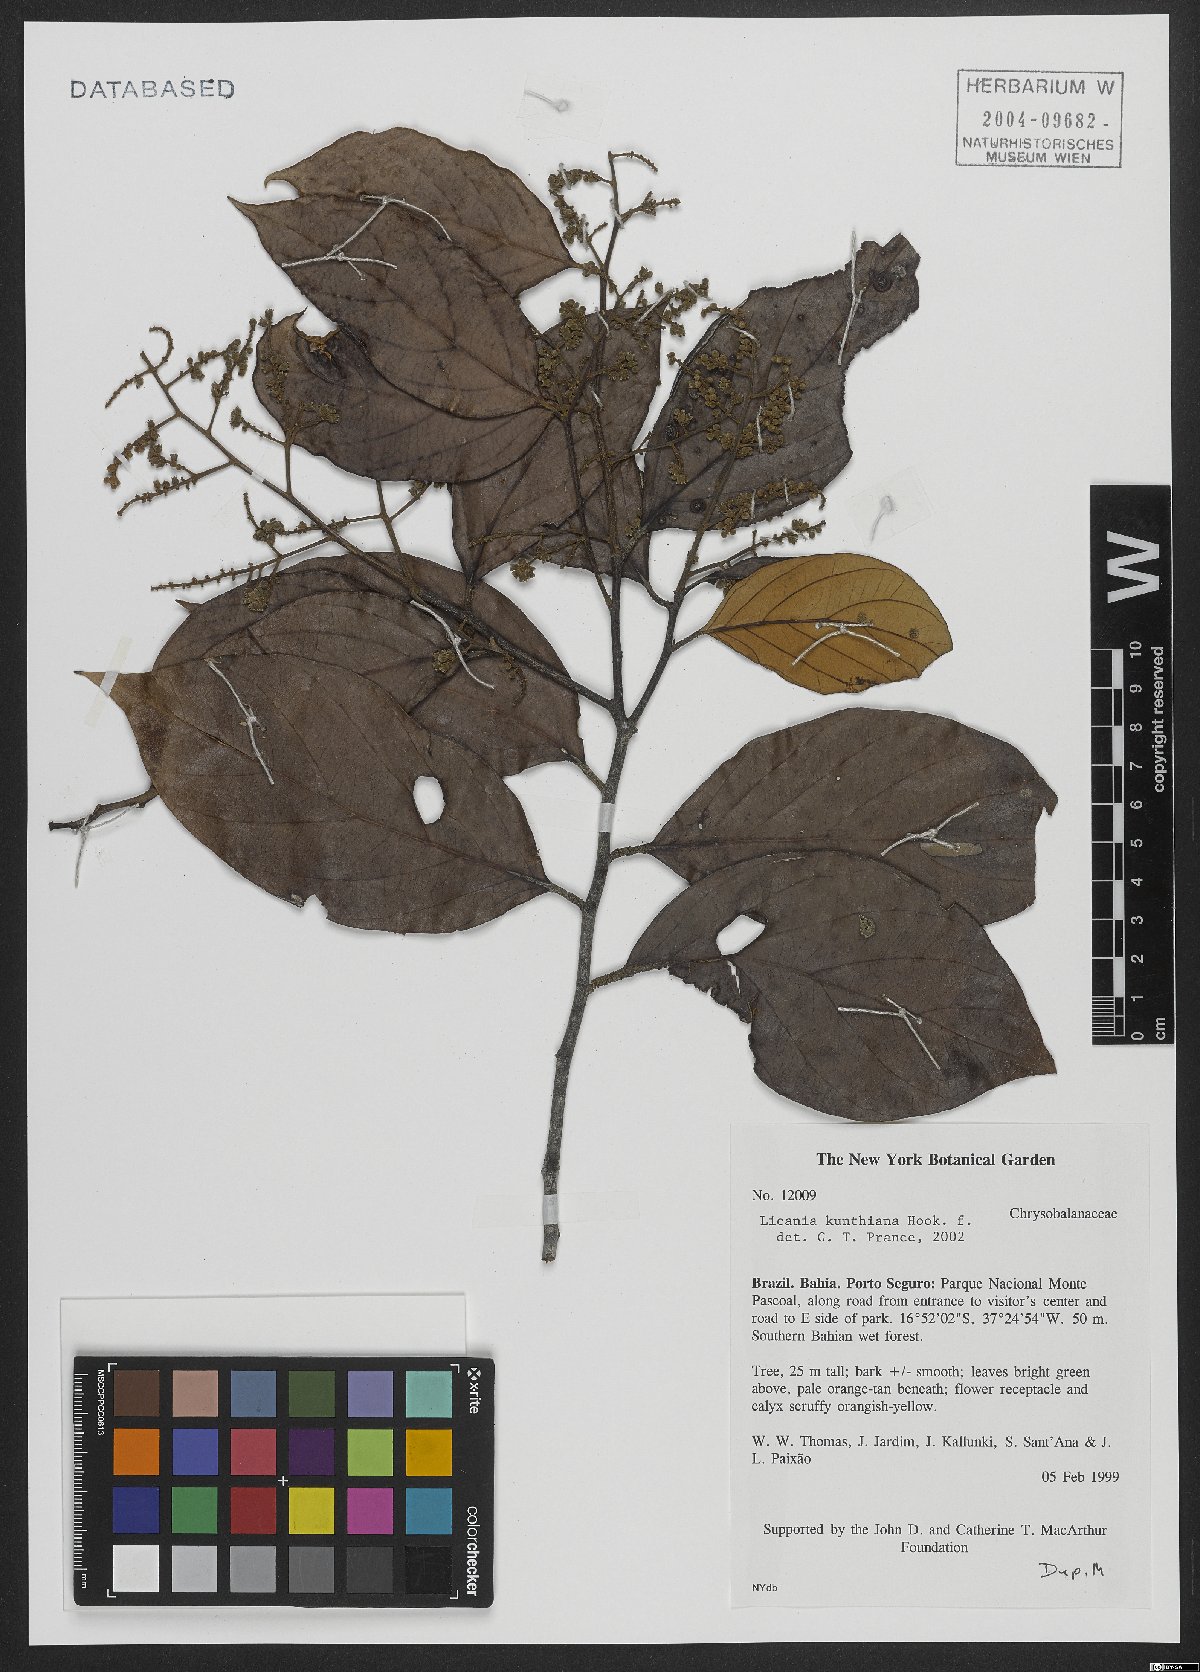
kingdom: Plantae
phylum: Tracheophyta
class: Magnoliopsida
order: Malpighiales
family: Chrysobalanaceae
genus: Licania
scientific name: Licania kunthiana
